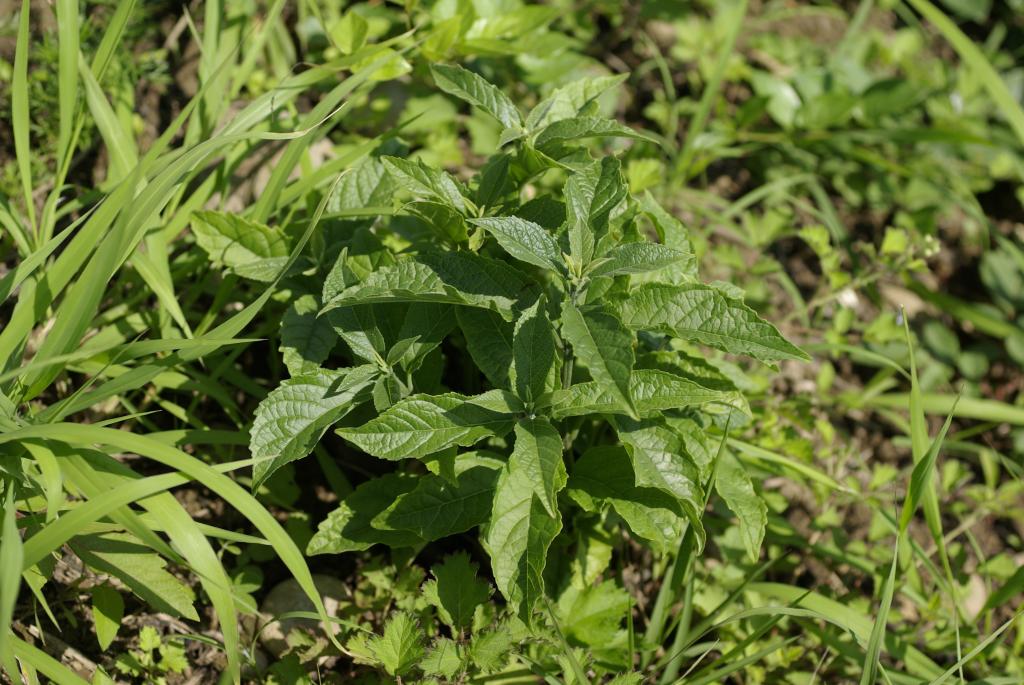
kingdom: Plantae
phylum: Tracheophyta
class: Magnoliopsida
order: Lamiales
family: Lamiaceae
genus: Clerodendrum
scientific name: Clerodendrum cyrtophyllum
